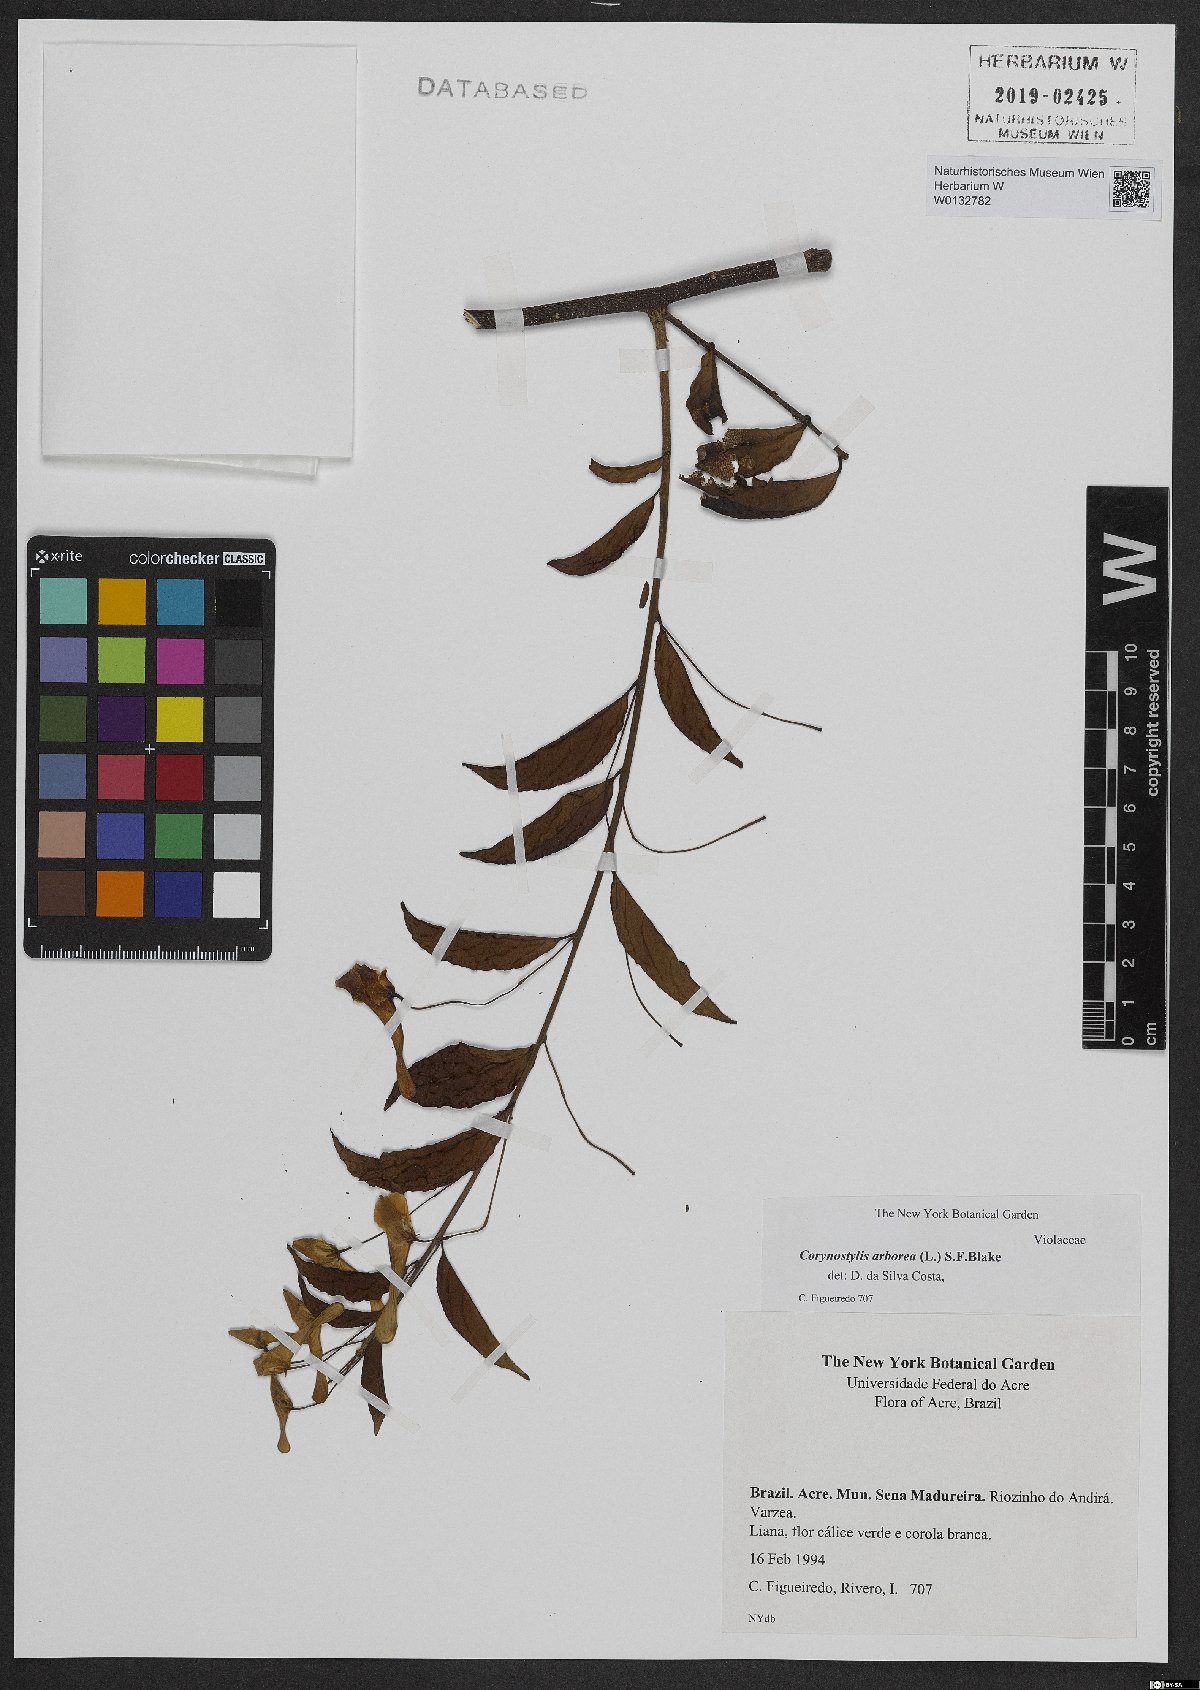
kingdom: Plantae
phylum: Tracheophyta
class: Magnoliopsida
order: Malpighiales
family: Violaceae
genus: Calyptrion
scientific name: Calyptrion arboreum
